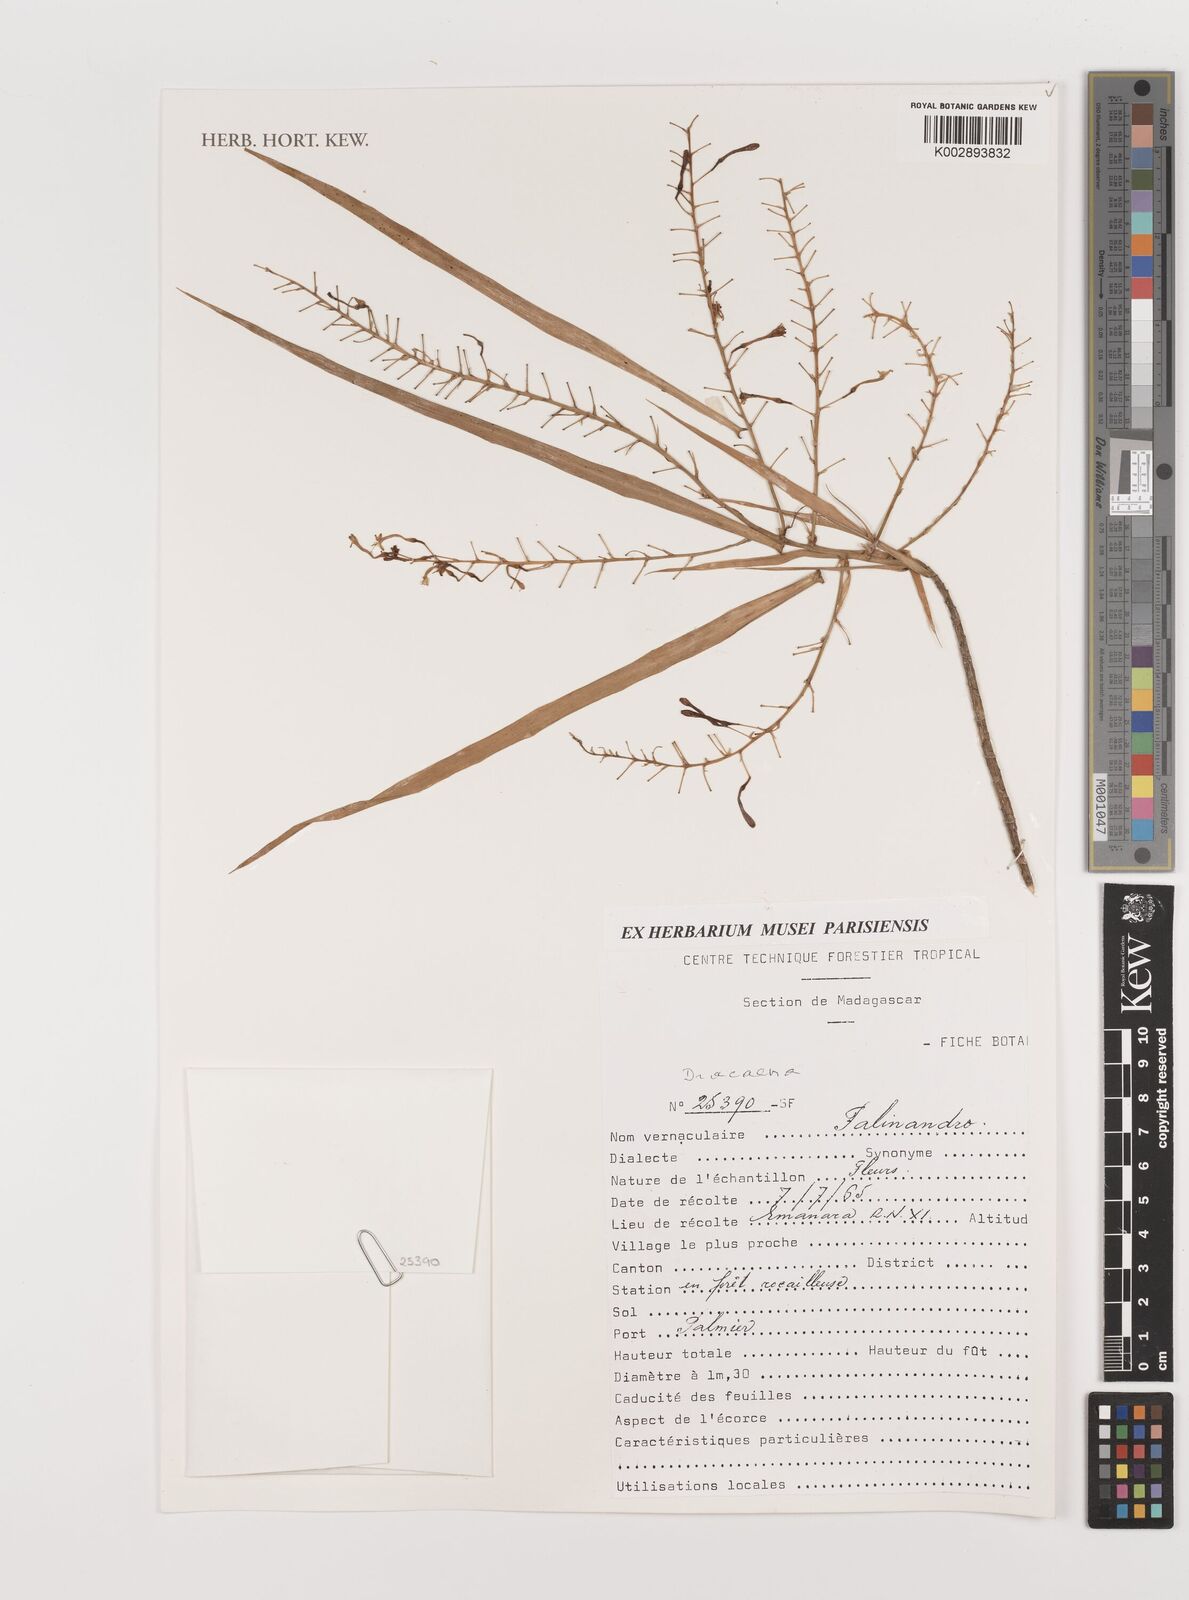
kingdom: Plantae
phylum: Tracheophyta
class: Liliopsida
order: Asparagales
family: Asparagaceae
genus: Dracaena
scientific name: Dracaena
